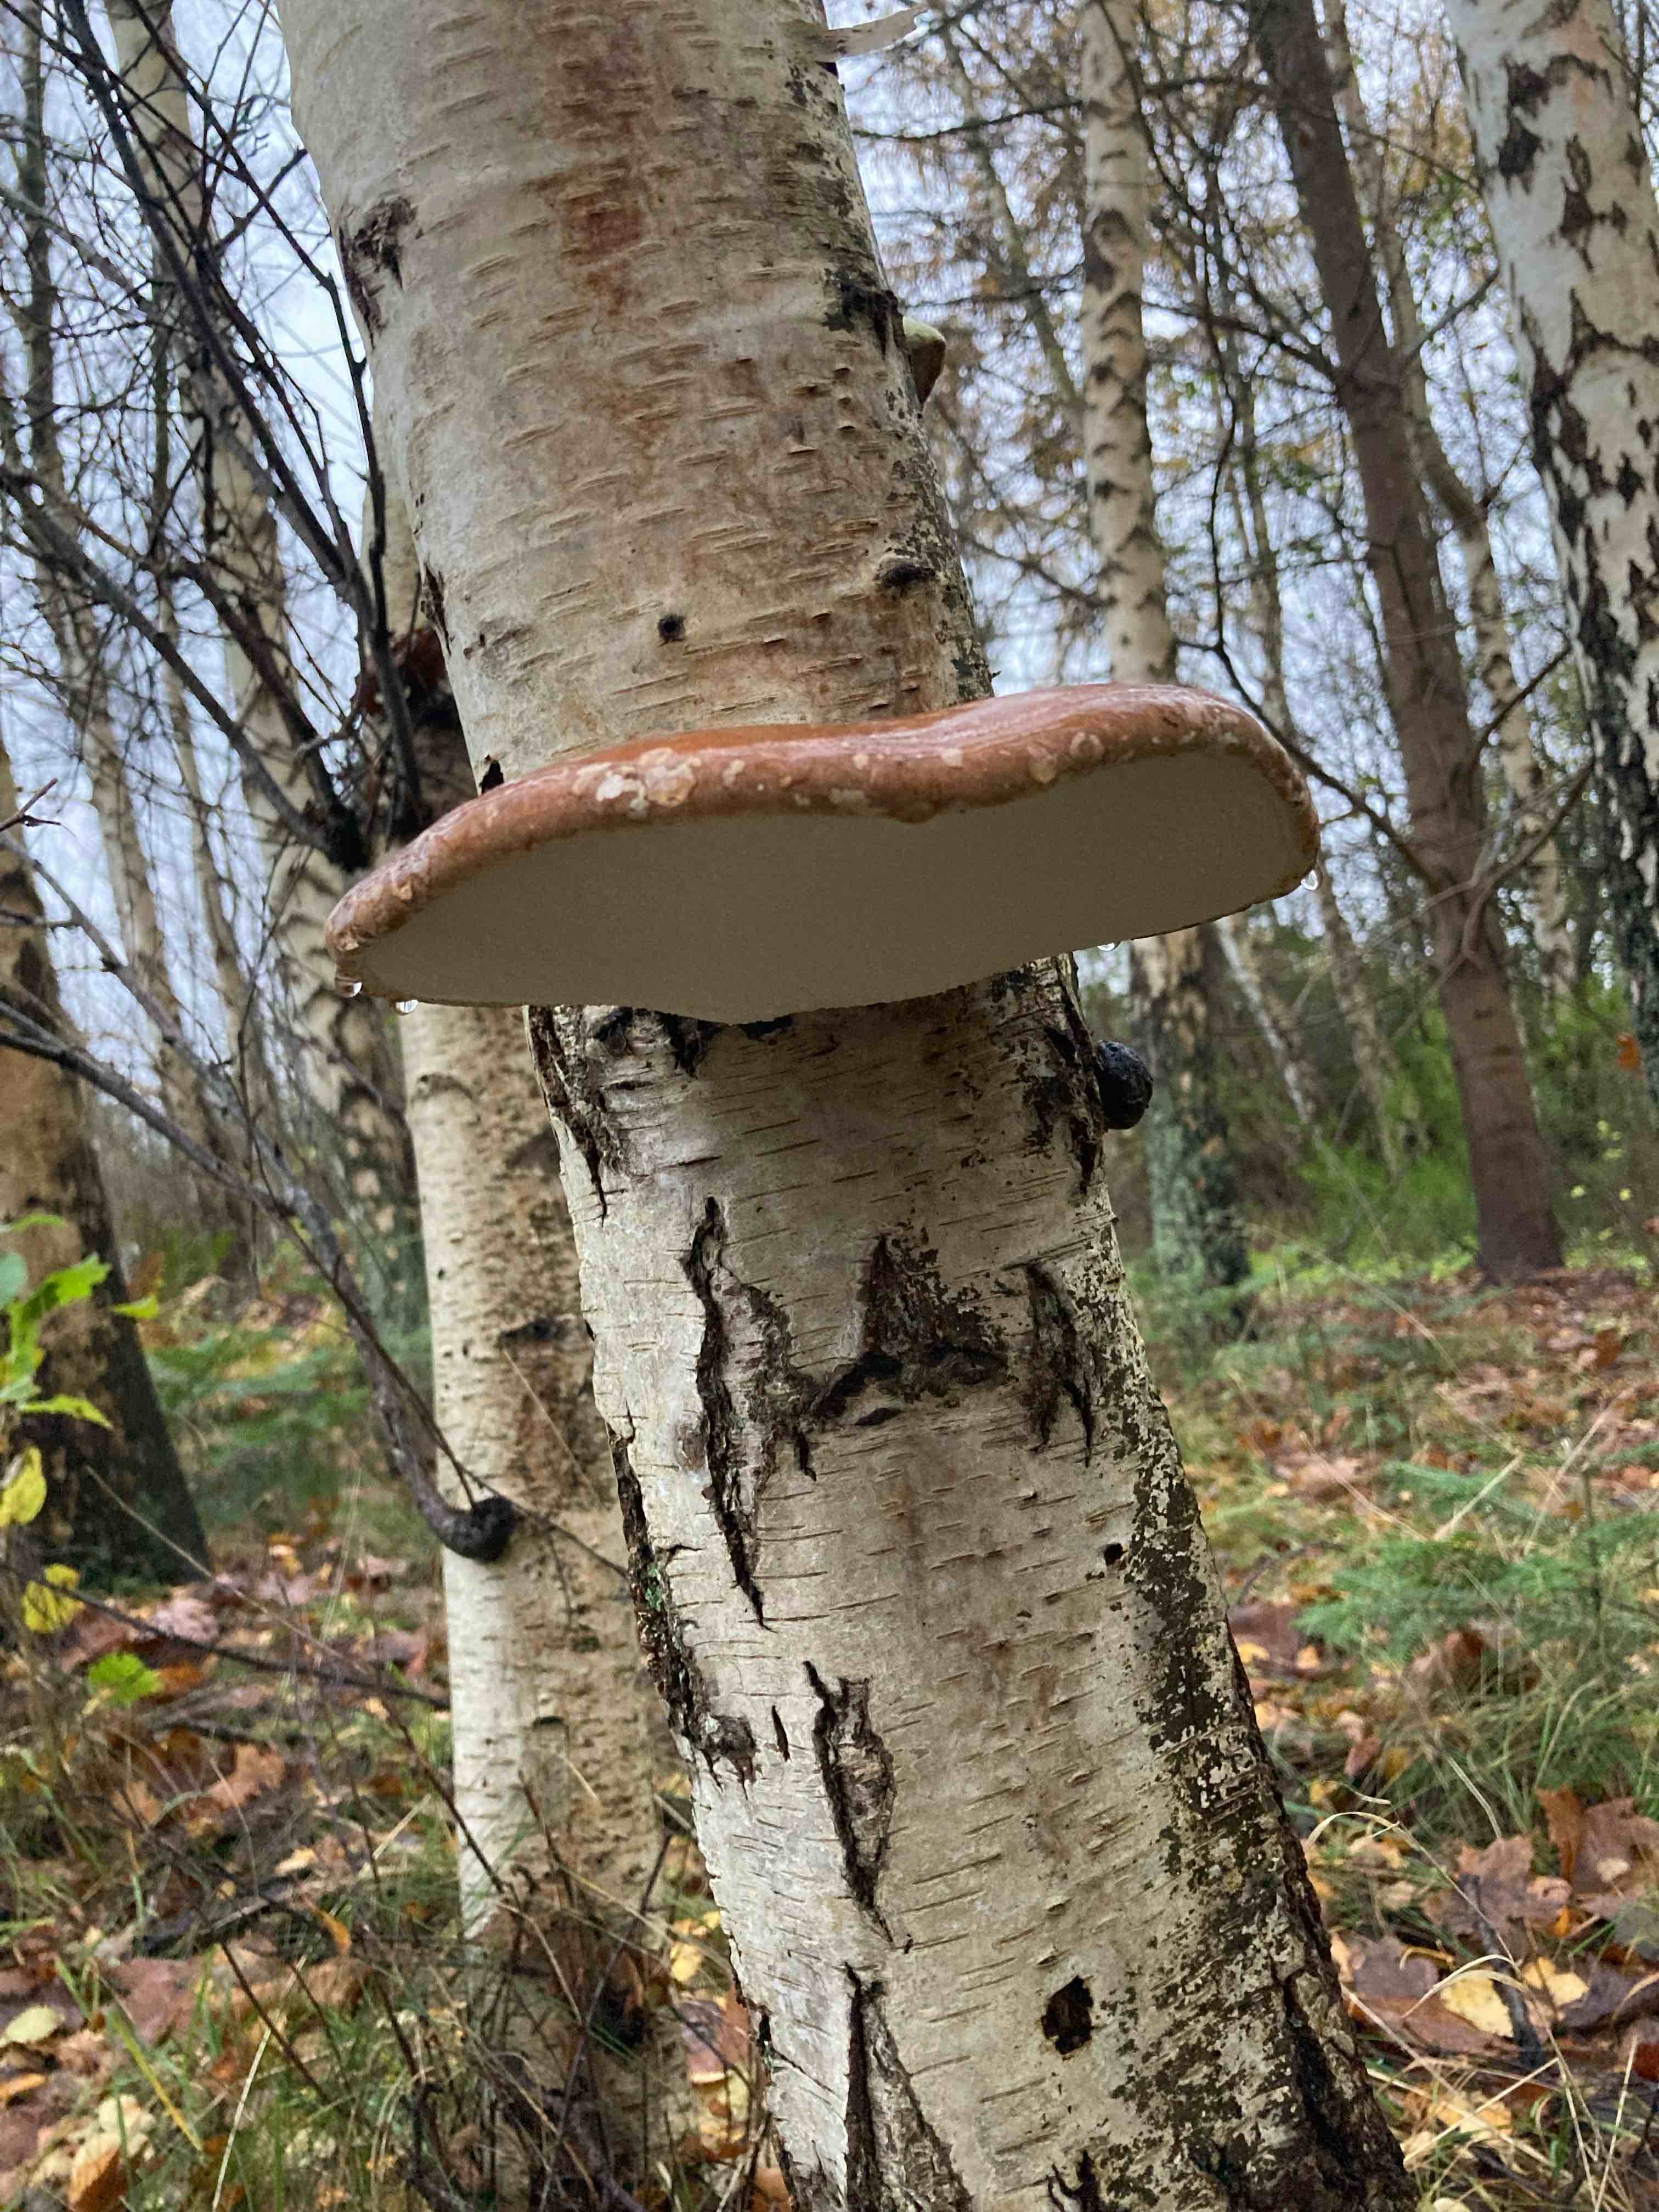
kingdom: Fungi
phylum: Basidiomycota
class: Agaricomycetes
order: Polyporales
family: Fomitopsidaceae
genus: Fomitopsis
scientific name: Fomitopsis betulina
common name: birkeporesvamp
